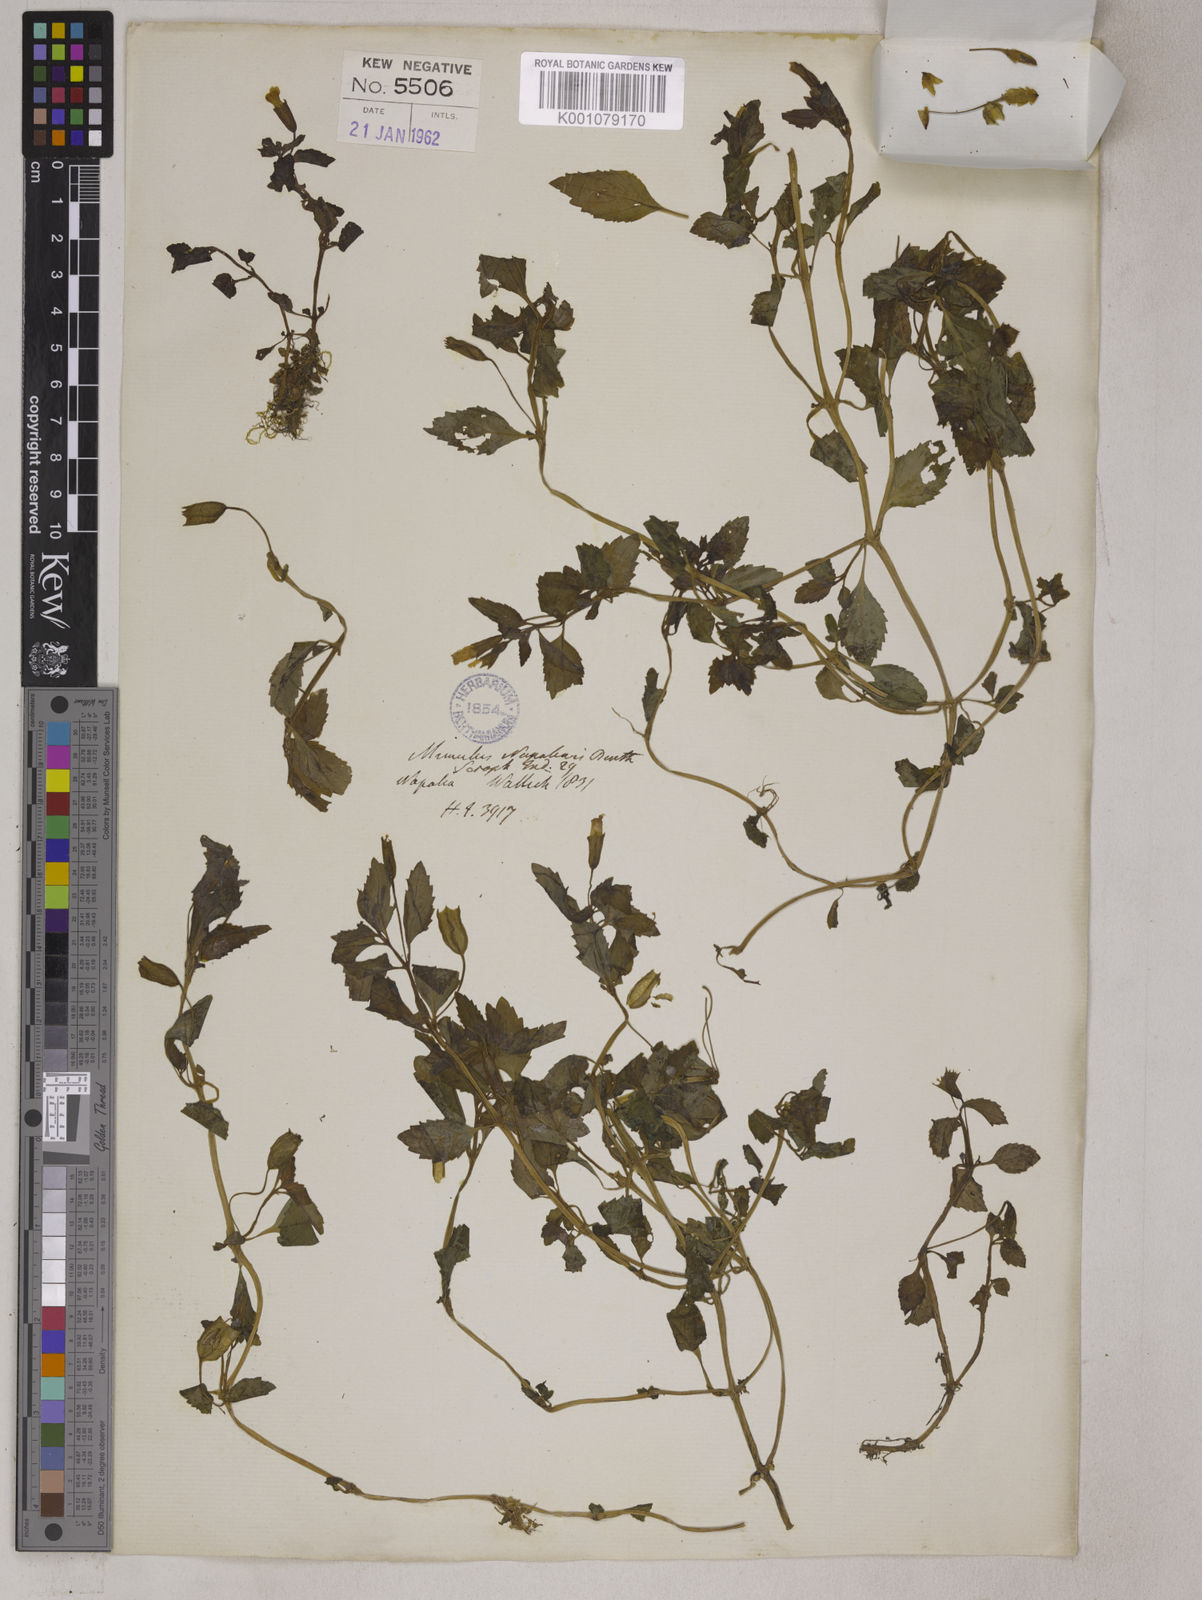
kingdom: Plantae
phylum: Tracheophyta
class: Magnoliopsida
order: Lamiales
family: Phrymaceae
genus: Mimulus
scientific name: Mimulus
